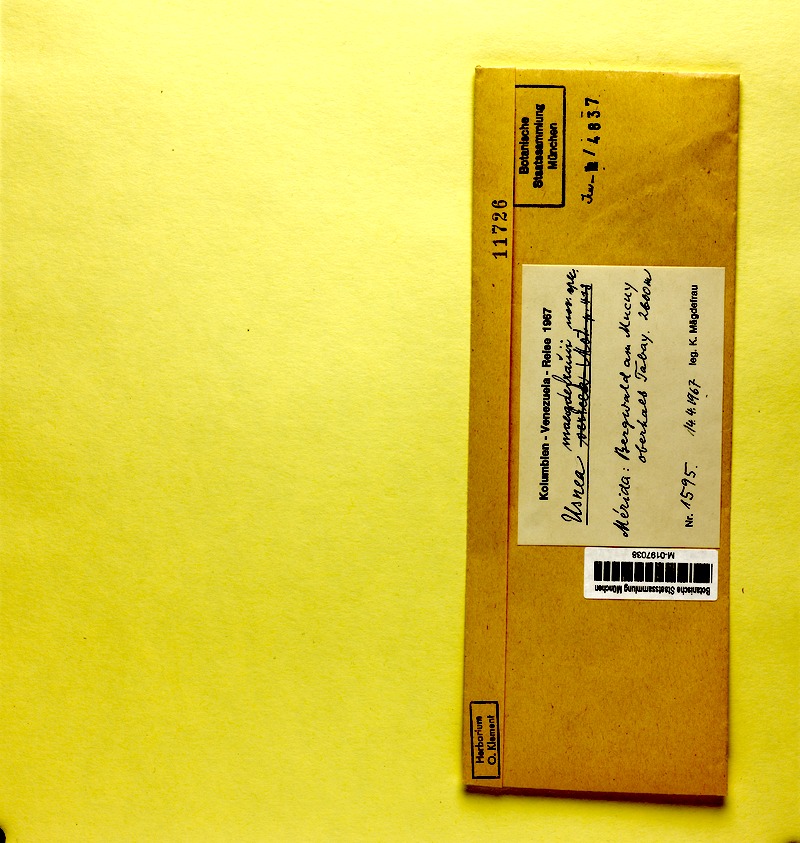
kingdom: Fungi
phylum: Ascomycota
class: Lecanoromycetes
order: Lecanorales
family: Parmeliaceae
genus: Usnea
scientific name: Usnea
